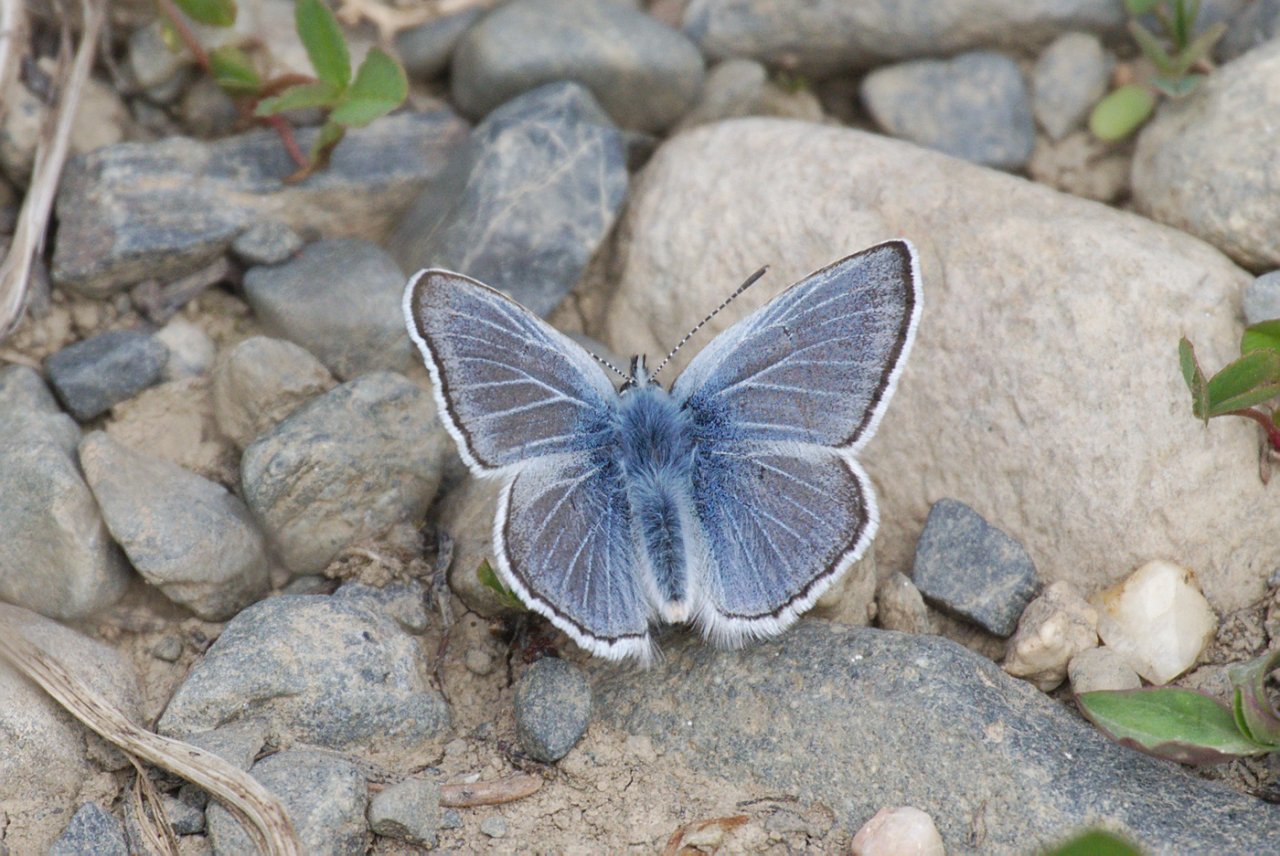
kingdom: Animalia
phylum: Arthropoda
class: Insecta
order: Lepidoptera
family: Lycaenidae
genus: Plebejus
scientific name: Plebejus saepiolus
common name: Greenish Blue
